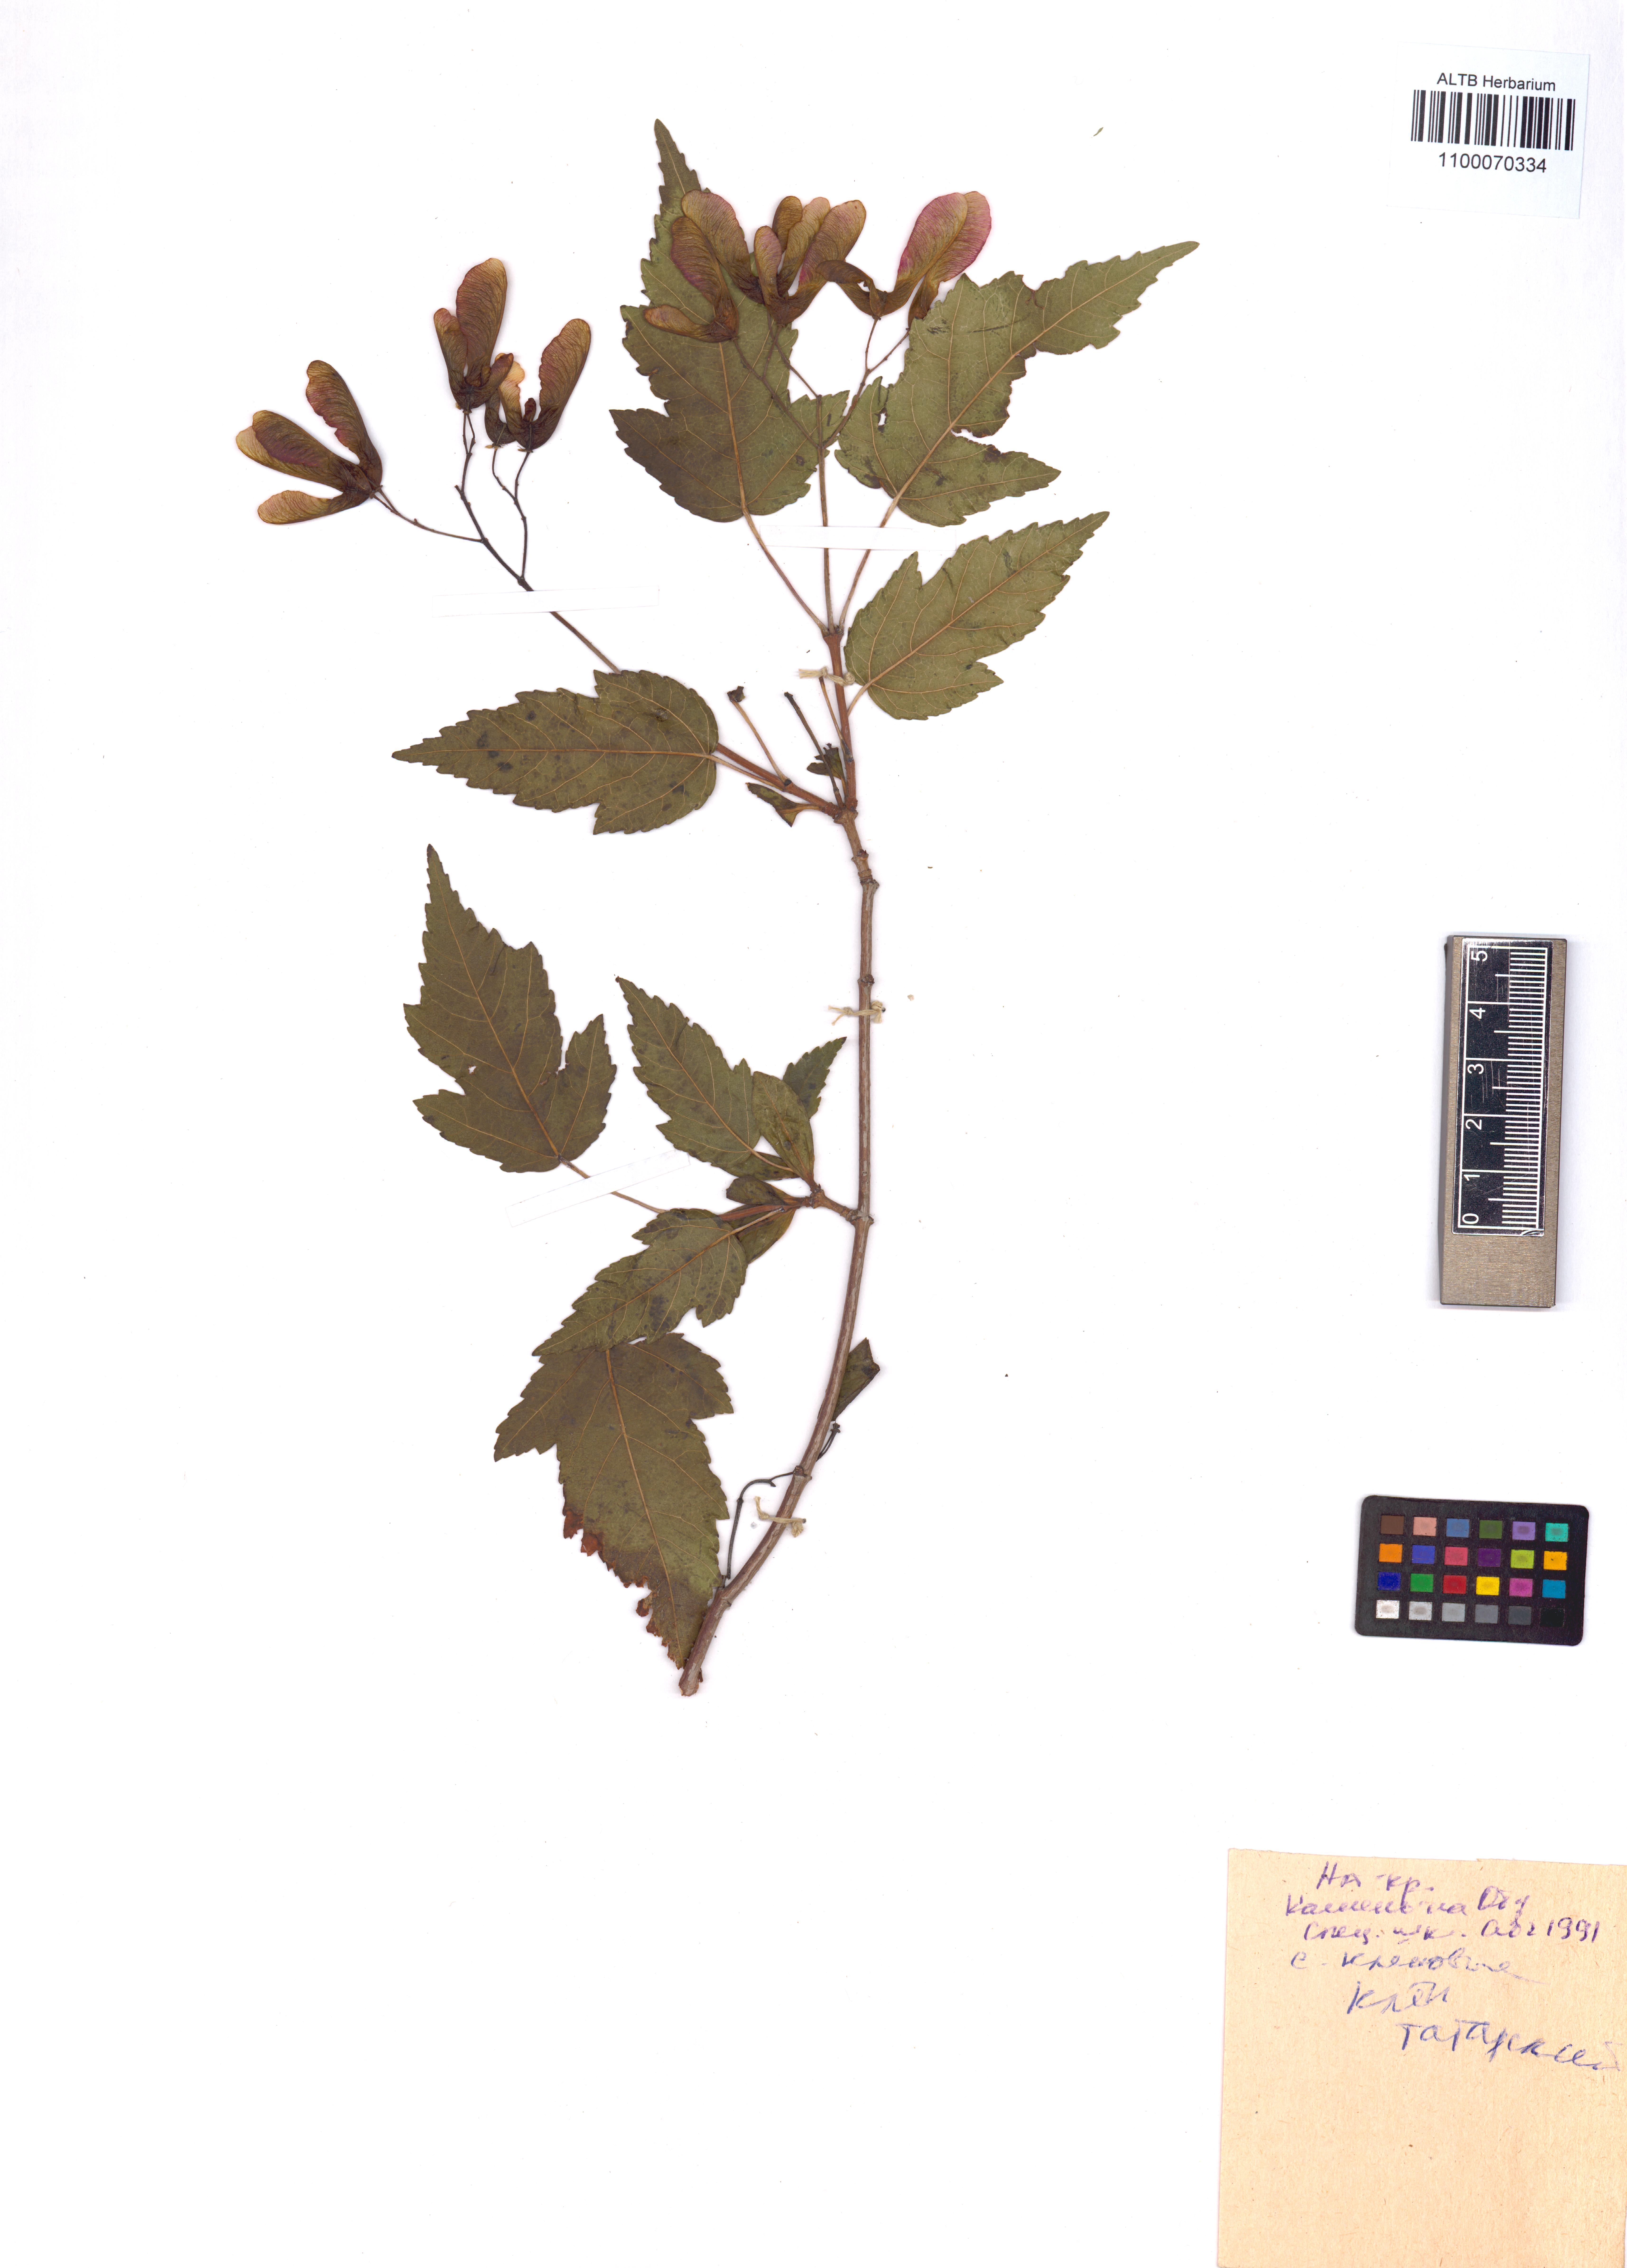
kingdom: Plantae
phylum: Tracheophyta
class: Magnoliopsida
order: Sapindales
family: Sapindaceae
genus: Acer
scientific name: Acer tataricum
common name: Tartar maple
